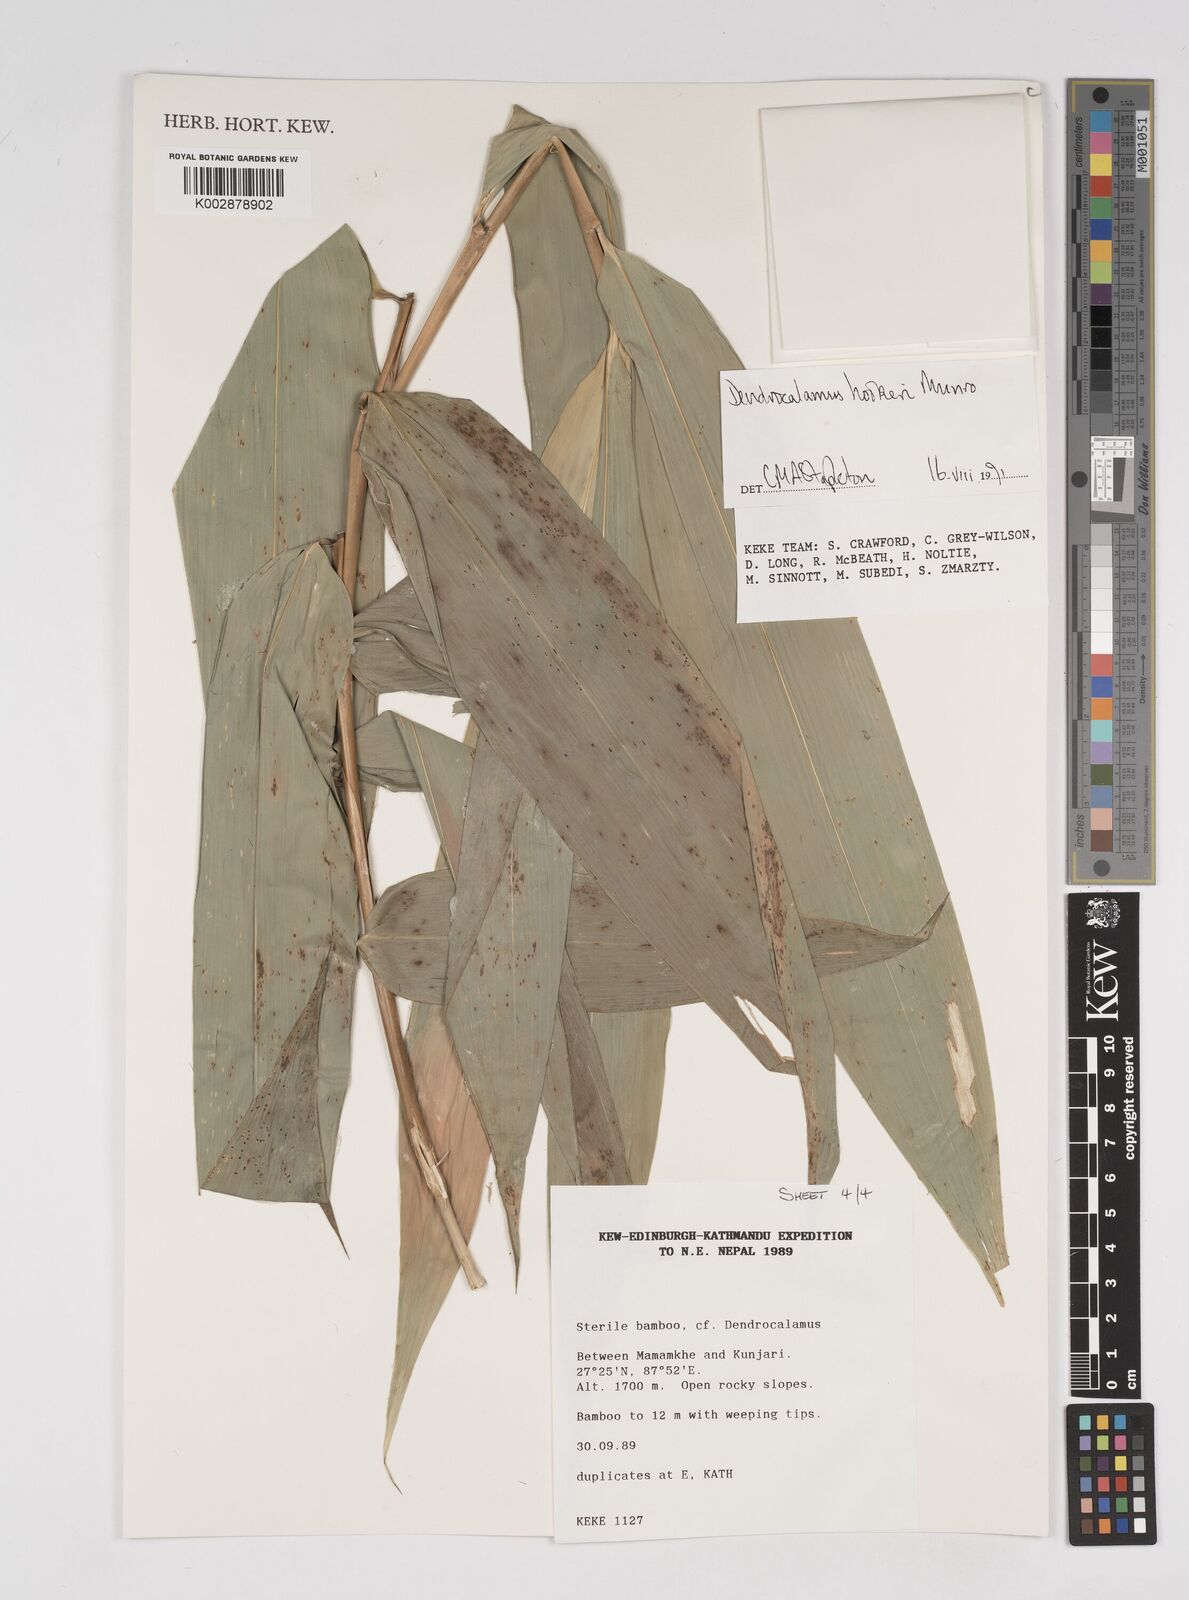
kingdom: Plantae
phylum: Tracheophyta
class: Liliopsida
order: Poales
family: Poaceae
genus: Dendrocalamus
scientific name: Dendrocalamus hookeri
